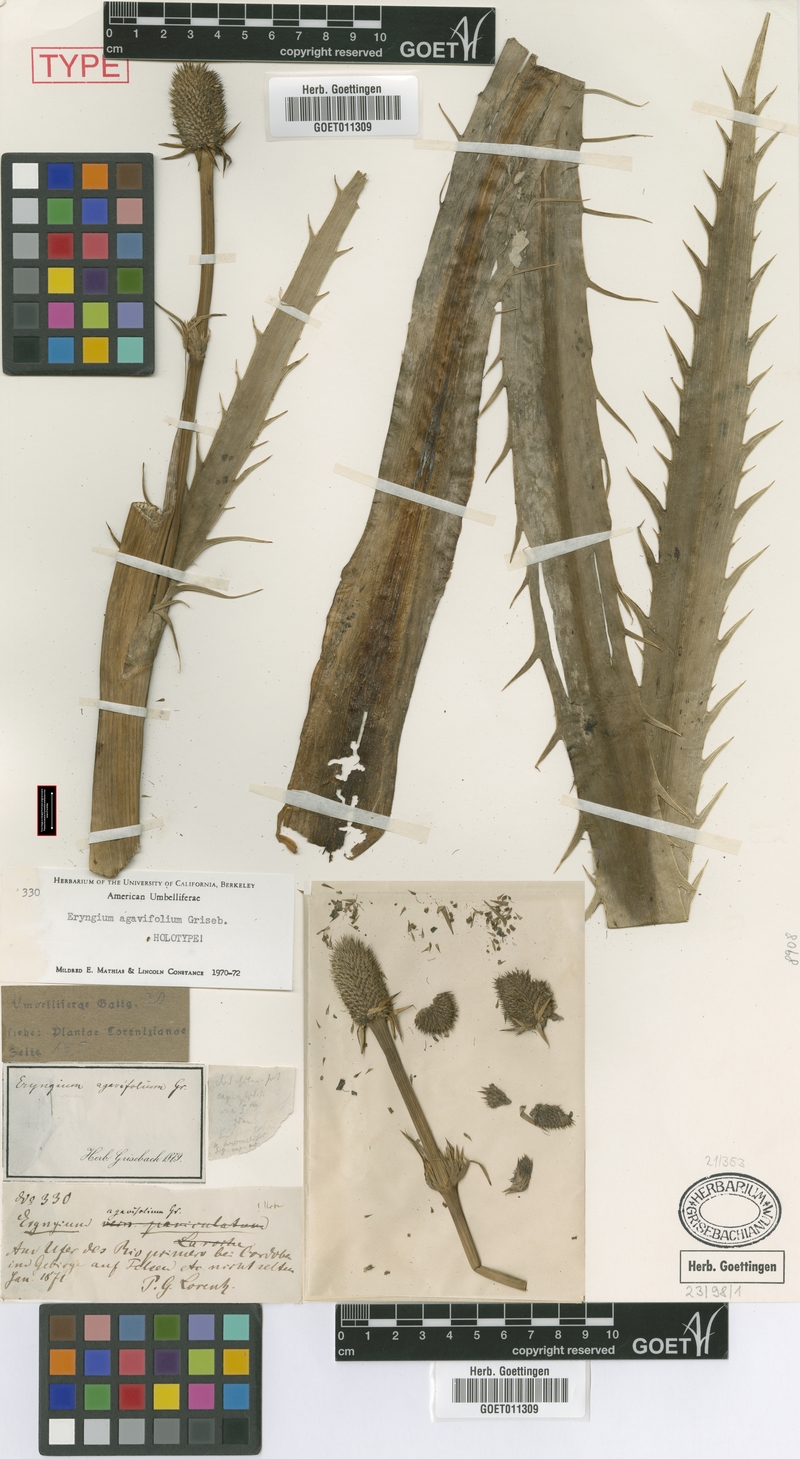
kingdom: Plantae
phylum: Tracheophyta
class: Magnoliopsida
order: Apiales
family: Apiaceae
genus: Eryngium
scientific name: Eryngium agavifolium
